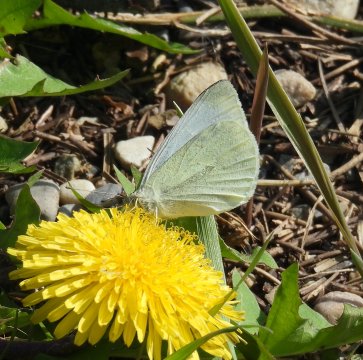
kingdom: Animalia
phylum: Arthropoda
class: Insecta
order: Lepidoptera
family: Pieridae
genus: Pieris
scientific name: Pieris rapae
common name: Cabbage White
